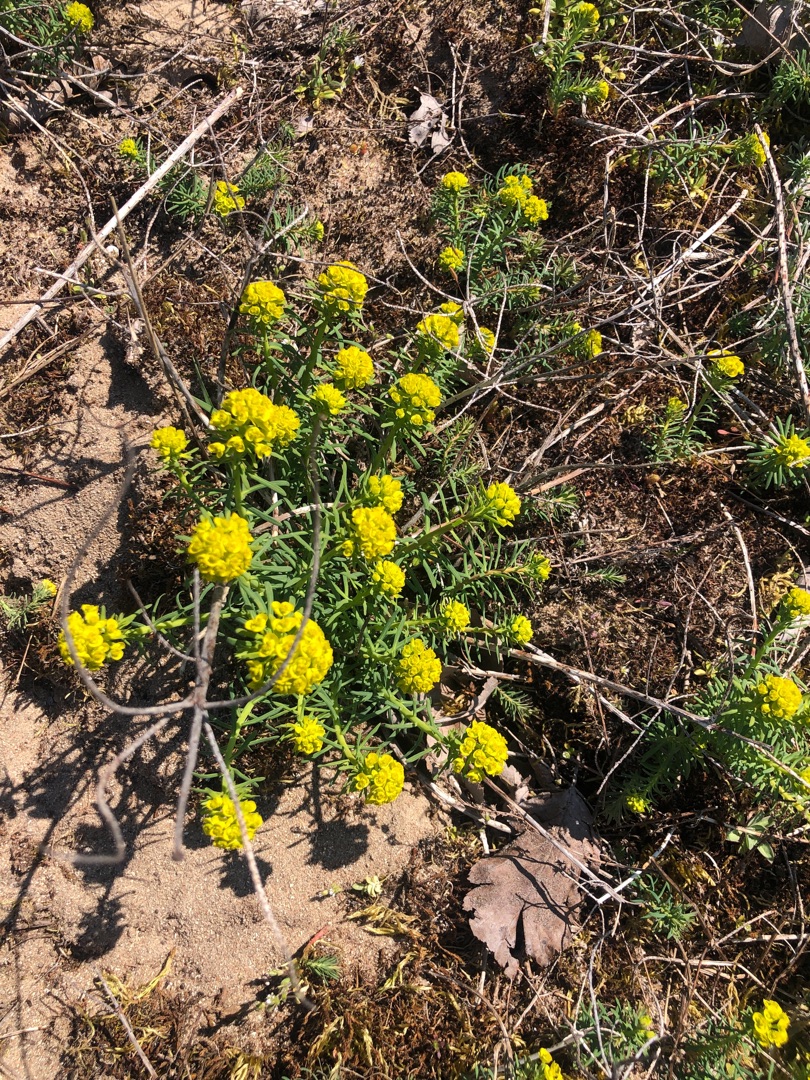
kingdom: Plantae
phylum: Tracheophyta
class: Magnoliopsida
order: Malpighiales
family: Euphorbiaceae
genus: Euphorbia
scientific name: Euphorbia cyparissias
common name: Cypres-vortemælk
